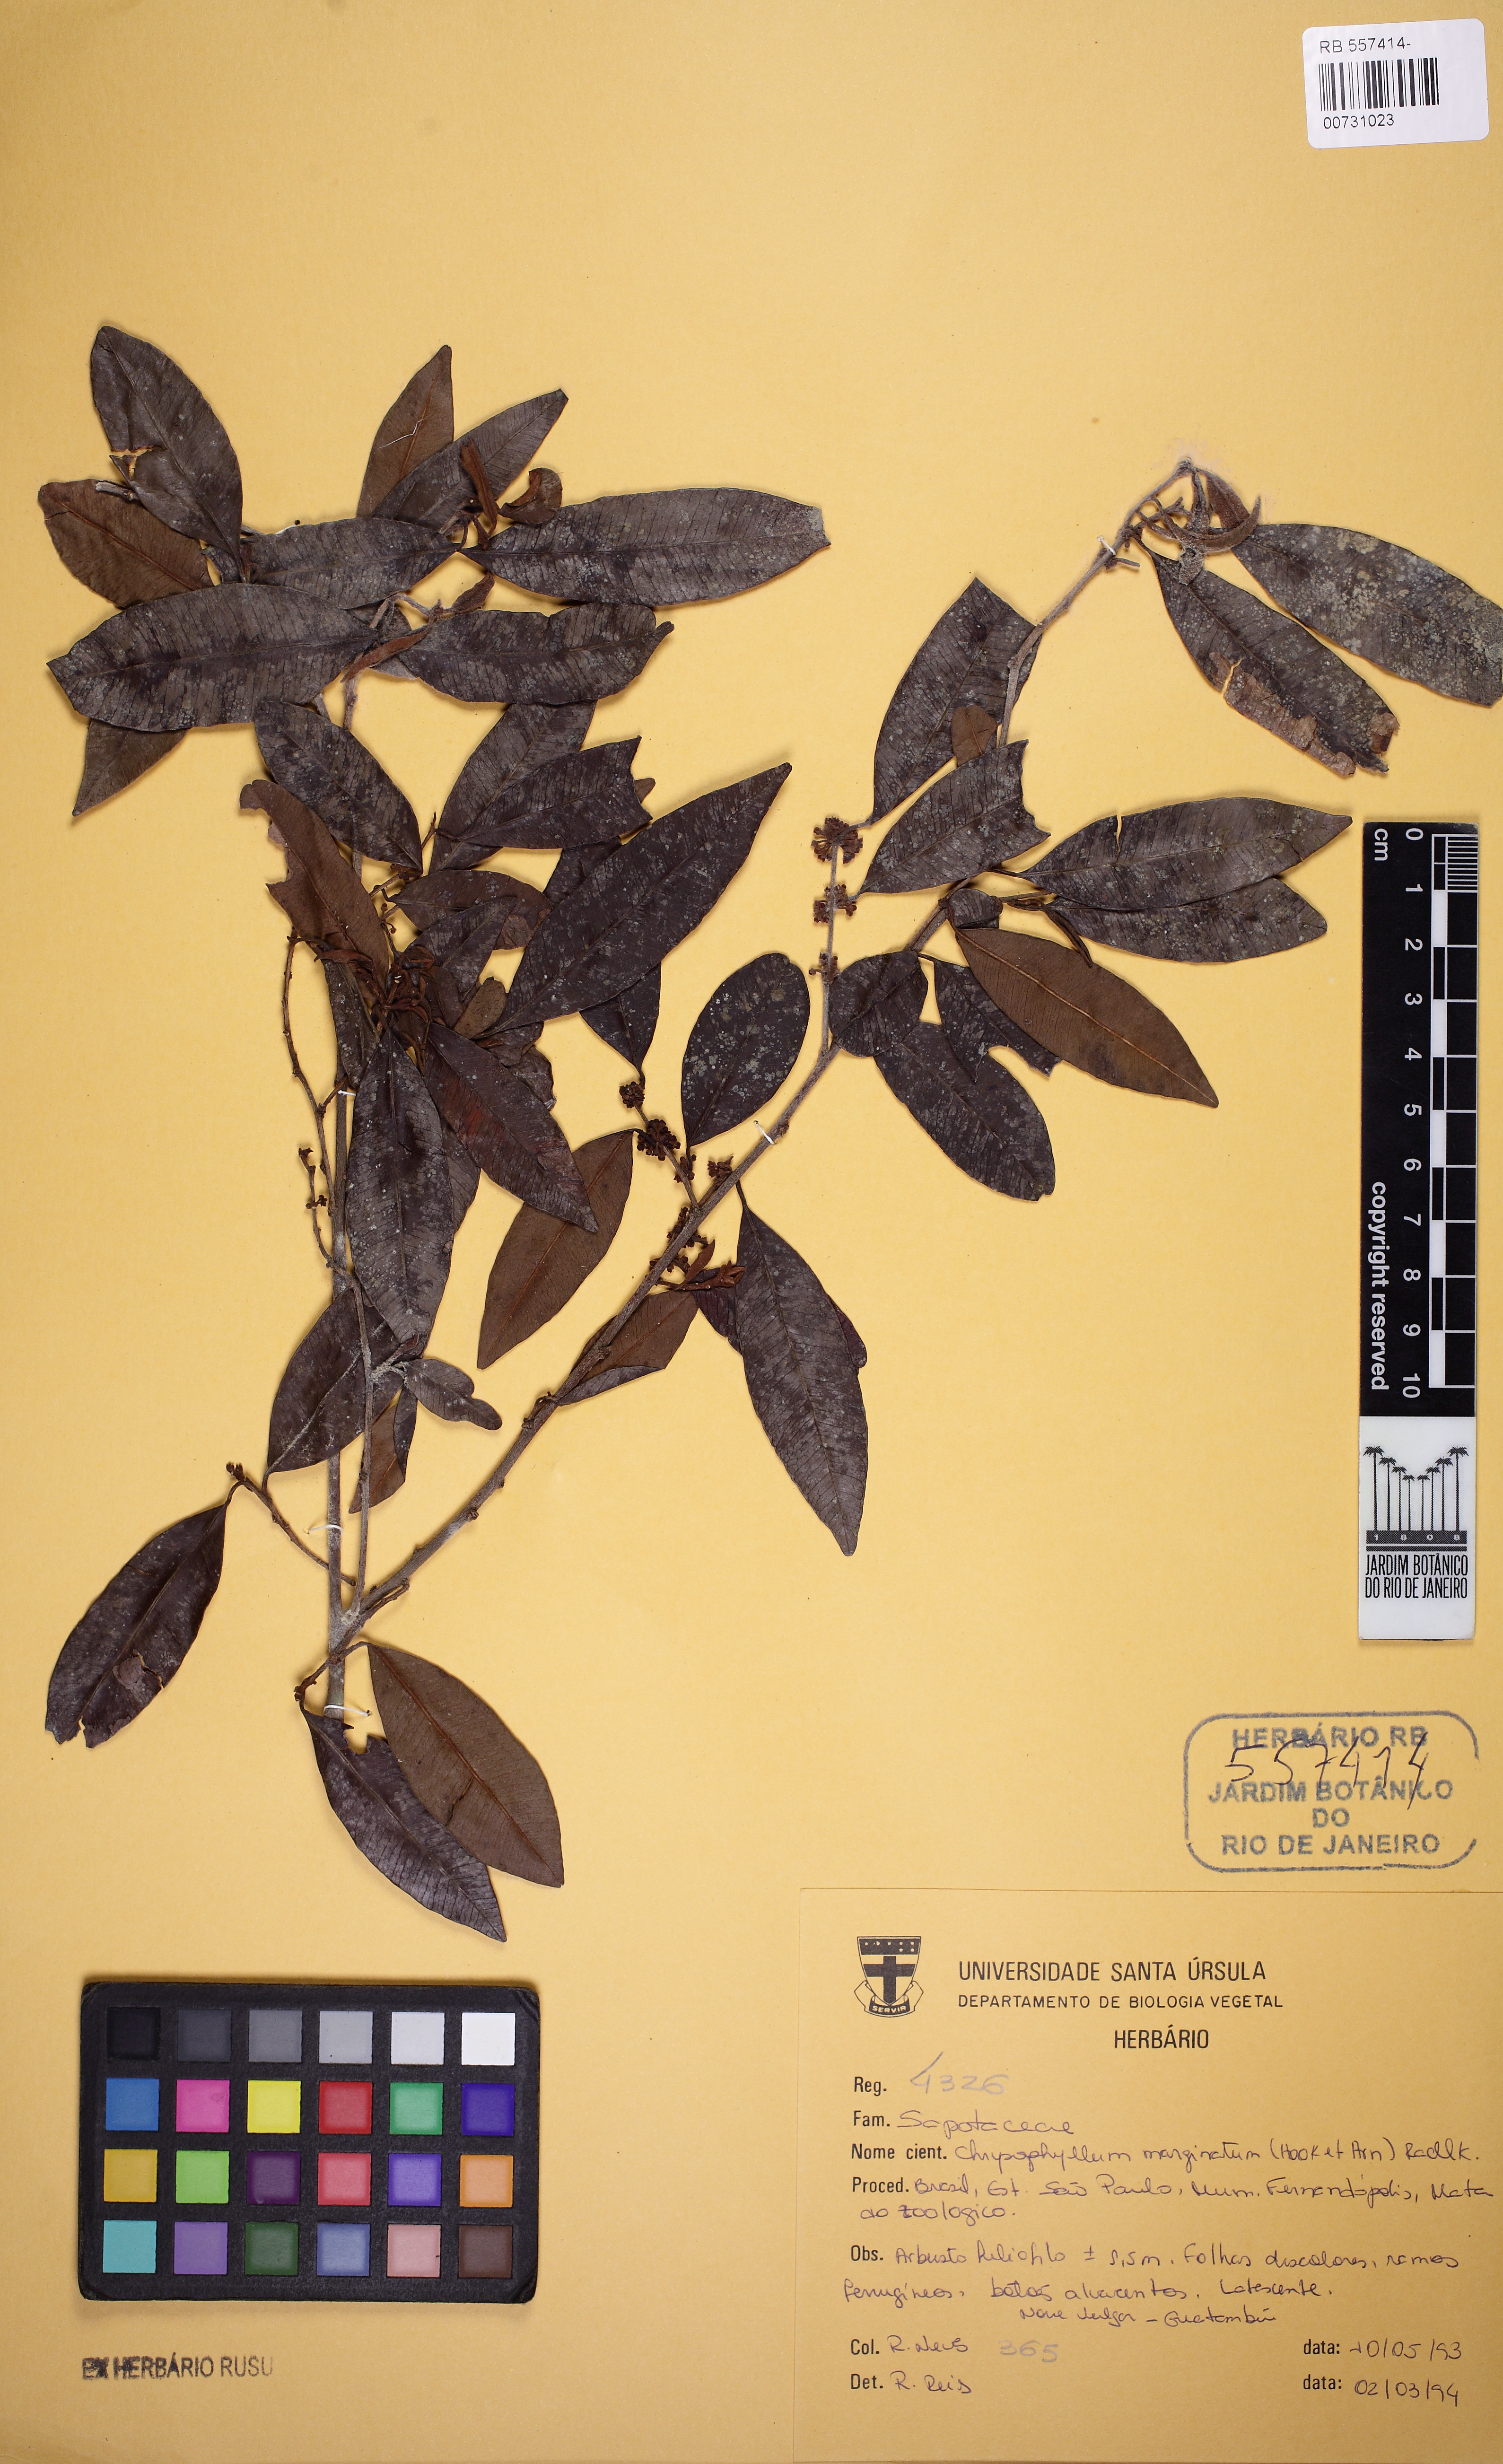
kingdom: Plantae
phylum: Tracheophyta
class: Magnoliopsida
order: Ericales
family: Sapotaceae
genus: Chrysophyllum
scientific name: Chrysophyllum marginatum
